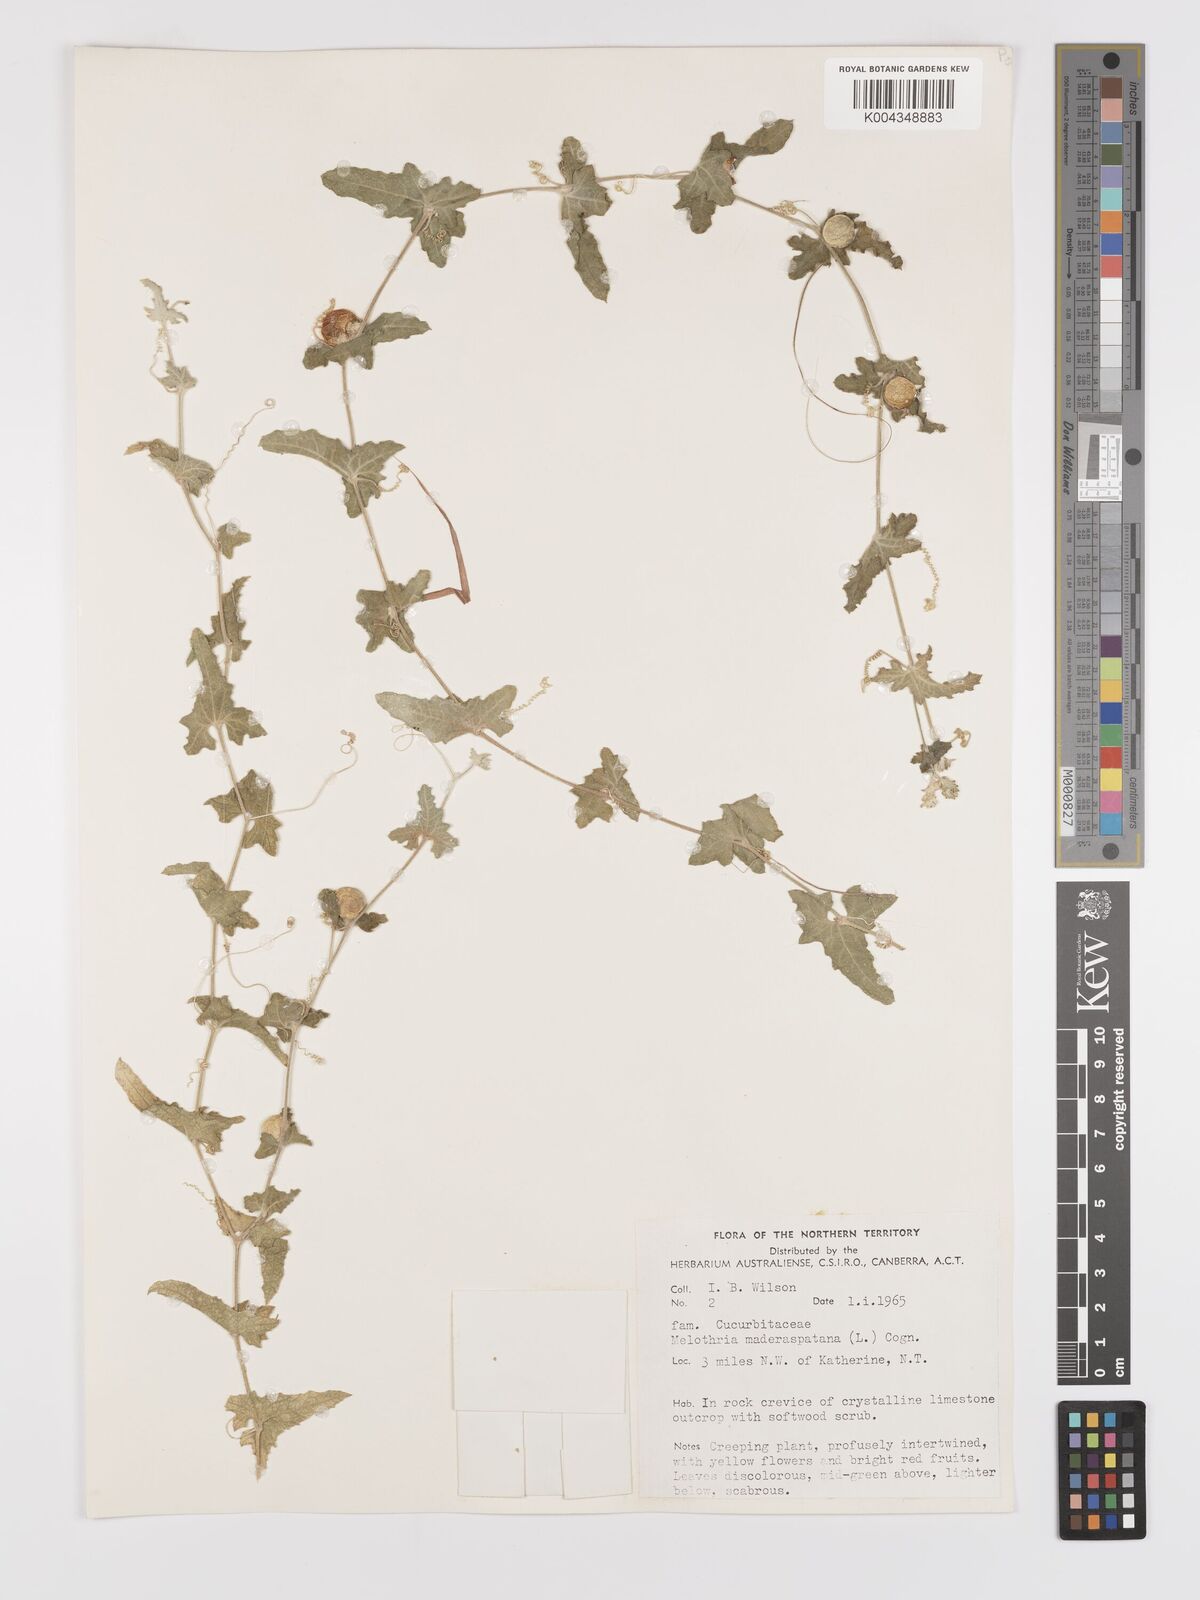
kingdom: Animalia
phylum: Arthropoda
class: Insecta
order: Lepidoptera
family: Crambidae
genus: Mukia
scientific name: Mukia
